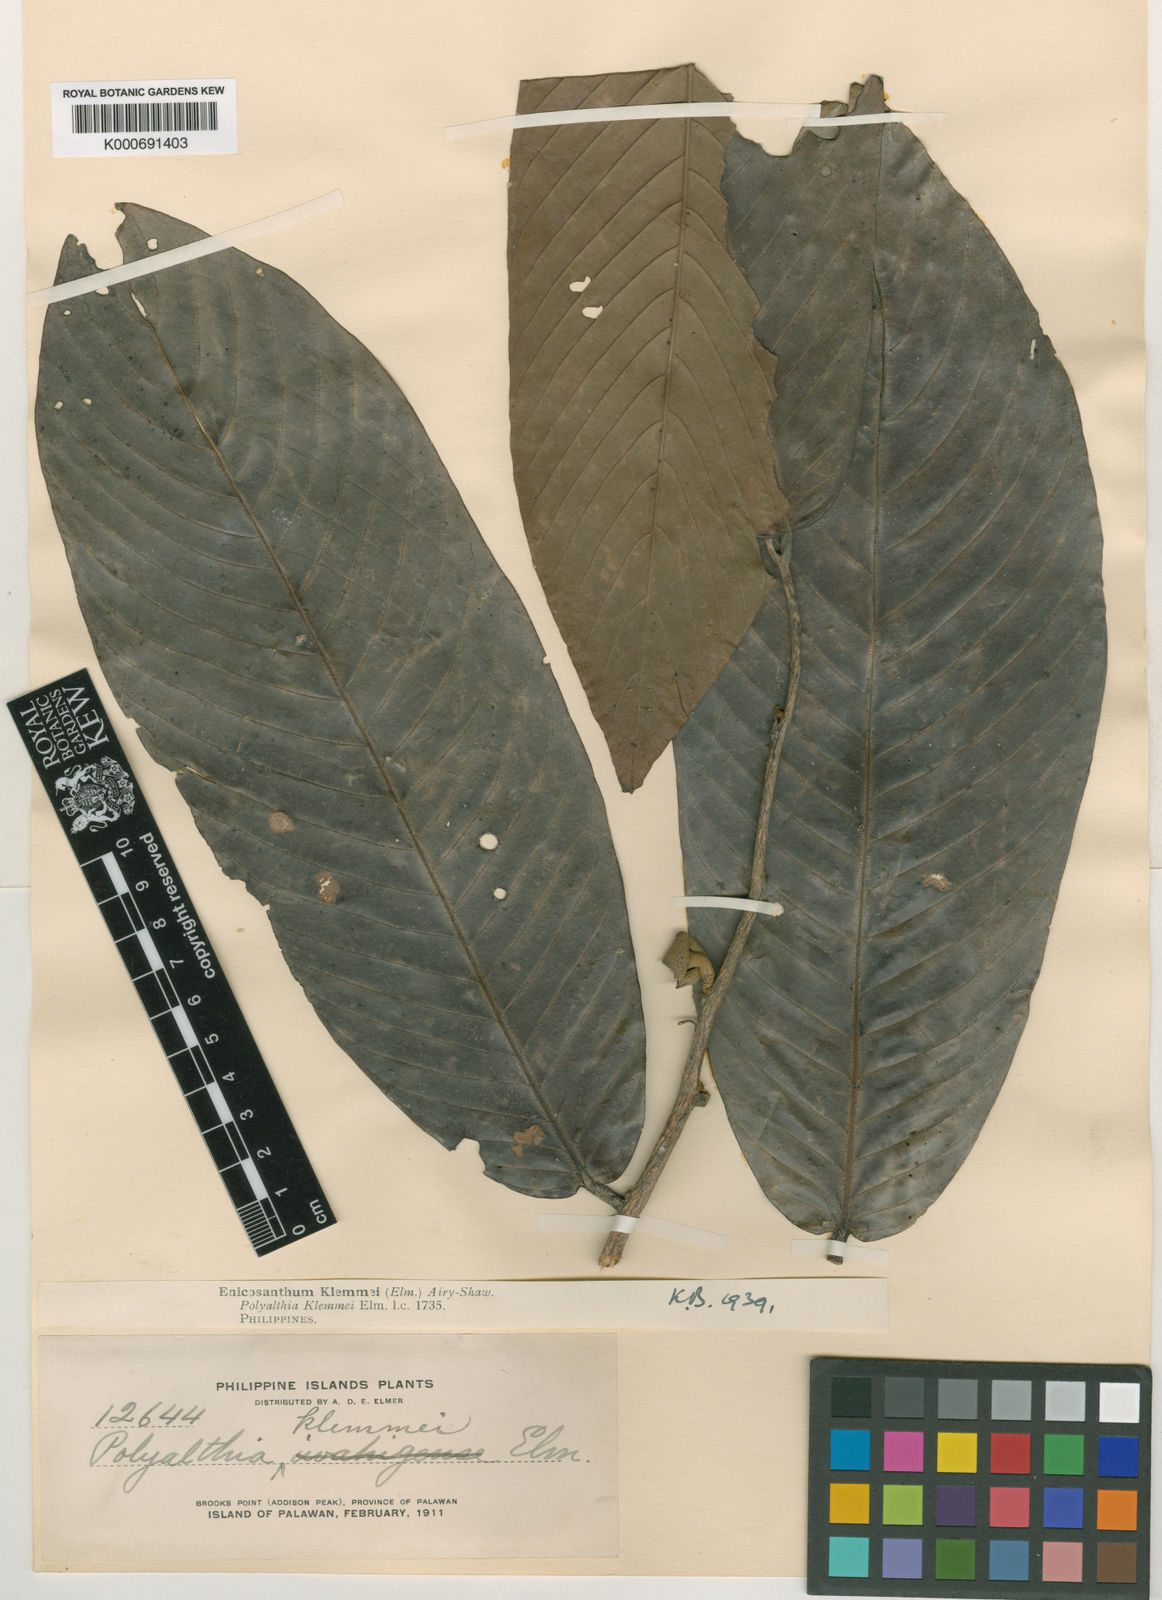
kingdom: Plantae
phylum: Tracheophyta
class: Magnoliopsida
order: Magnoliales
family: Annonaceae
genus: Enicosanthum
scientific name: Enicosanthum klemmei
